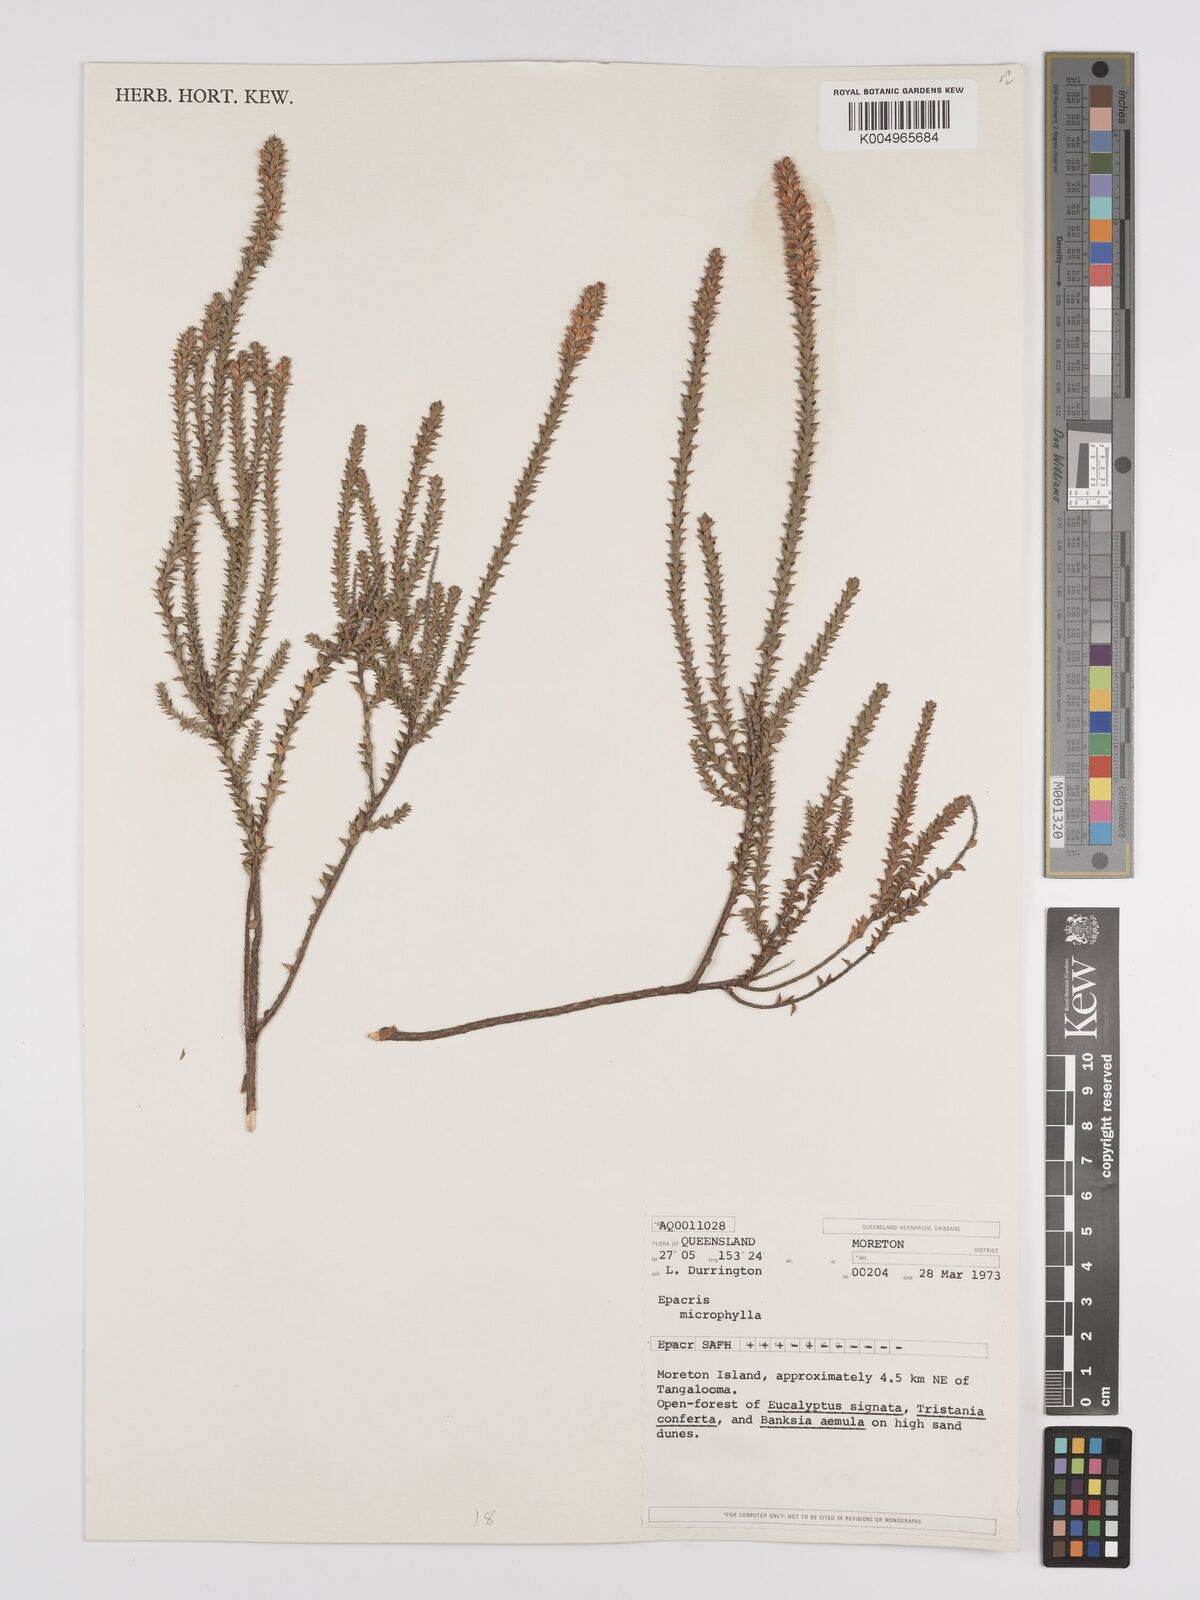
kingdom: Plantae
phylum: Tracheophyta
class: Magnoliopsida
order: Ericales
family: Ericaceae
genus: Epacris
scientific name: Epacris
